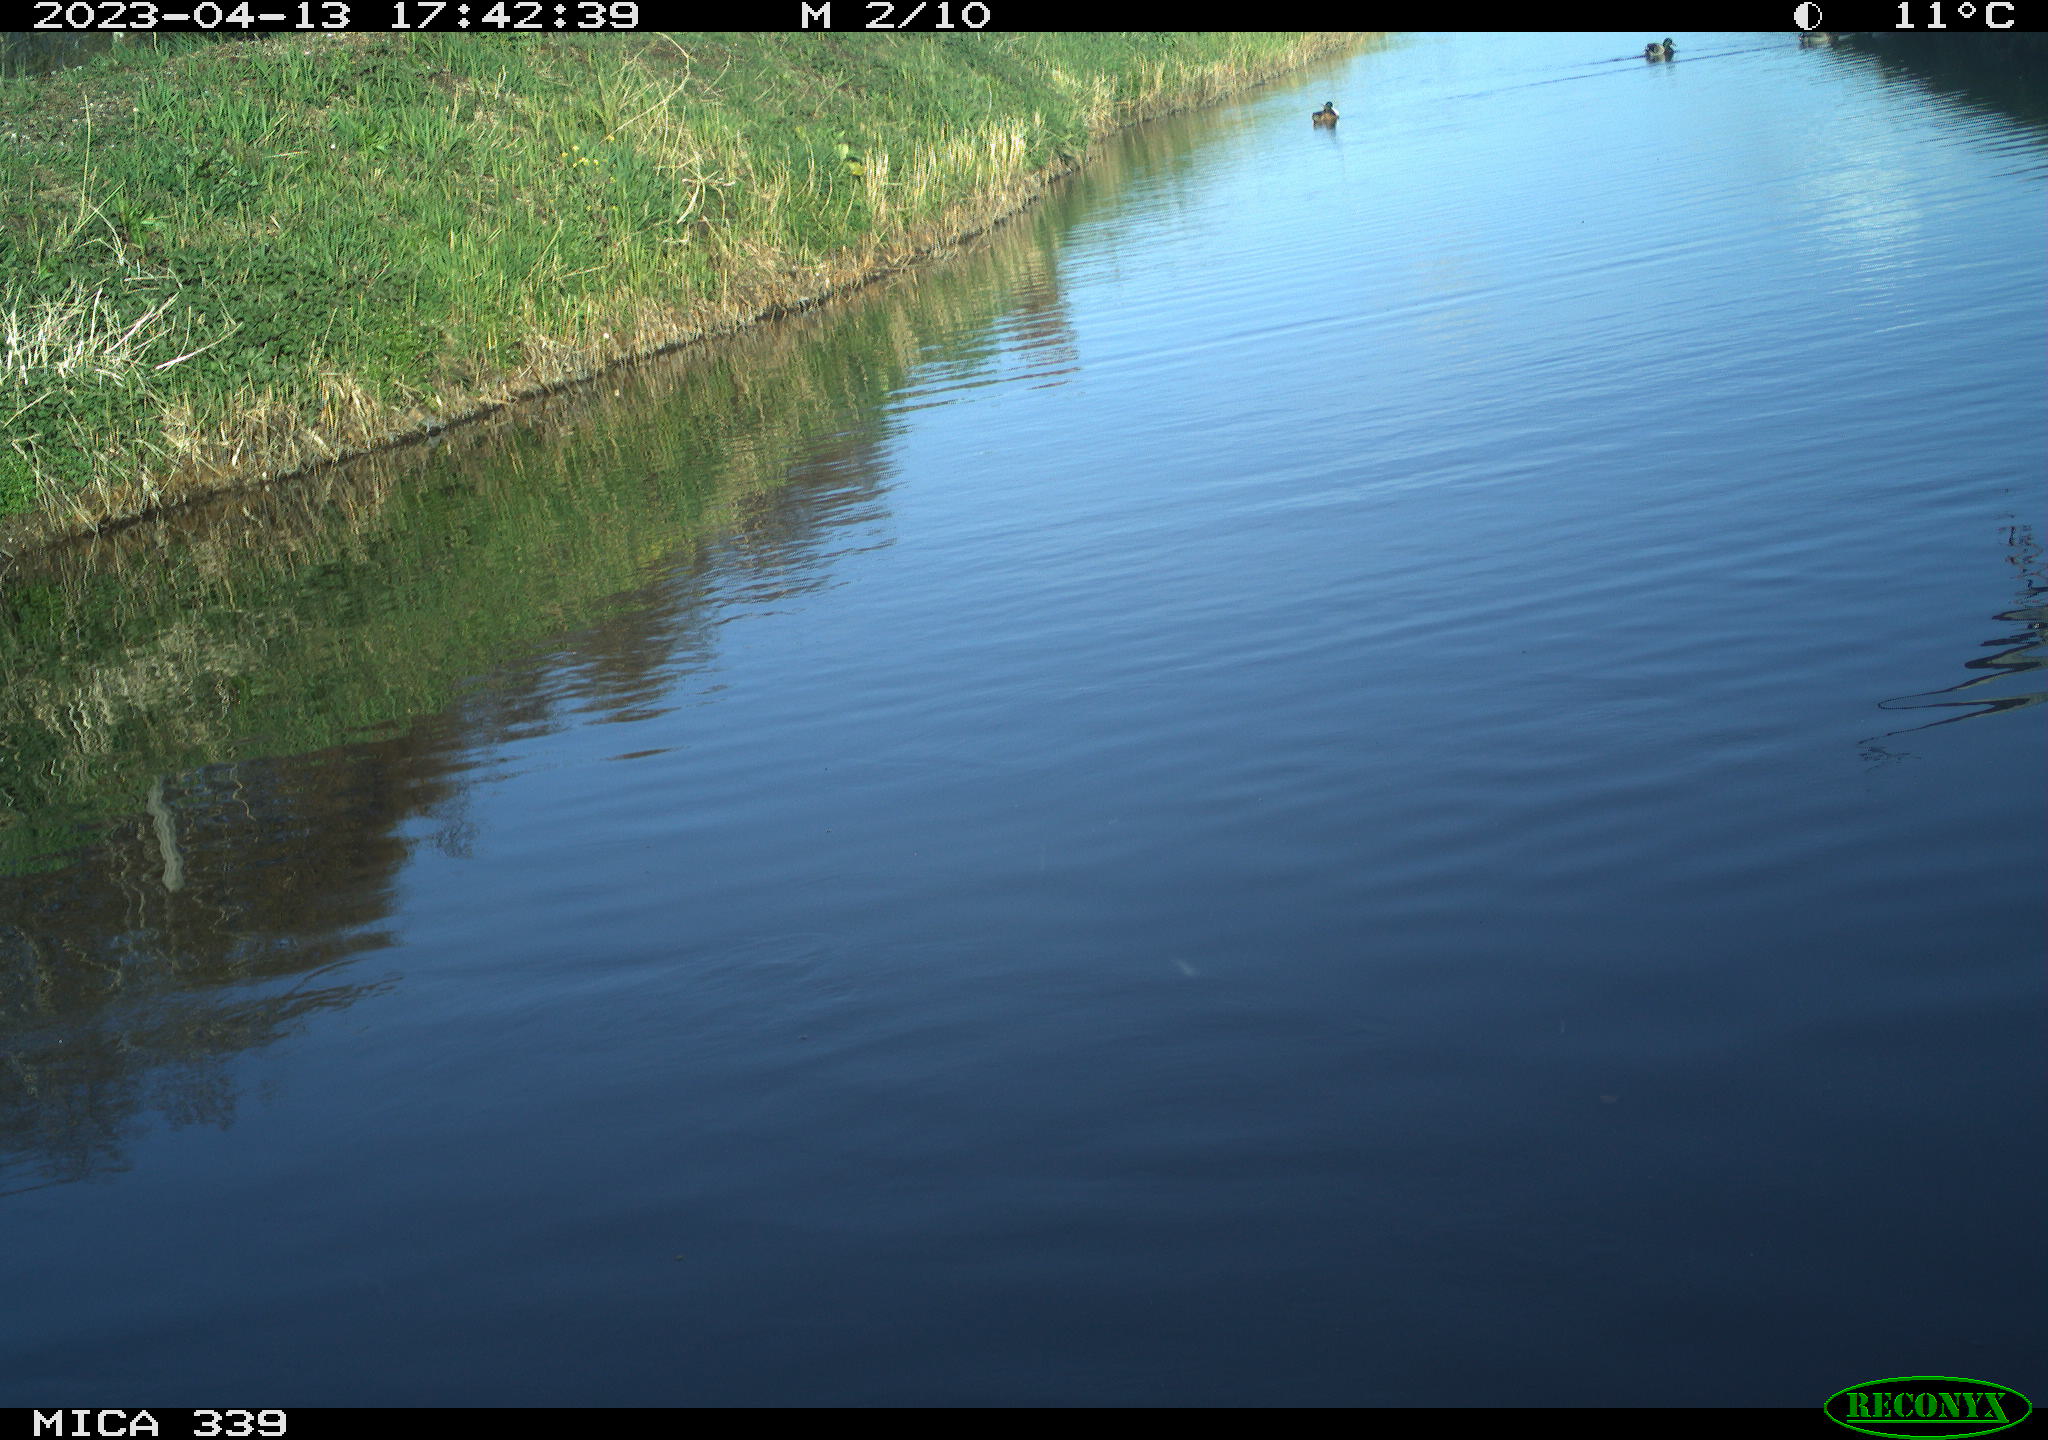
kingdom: Animalia
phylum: Chordata
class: Aves
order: Pelecaniformes
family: Ardeidae
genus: Ardea
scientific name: Ardea
